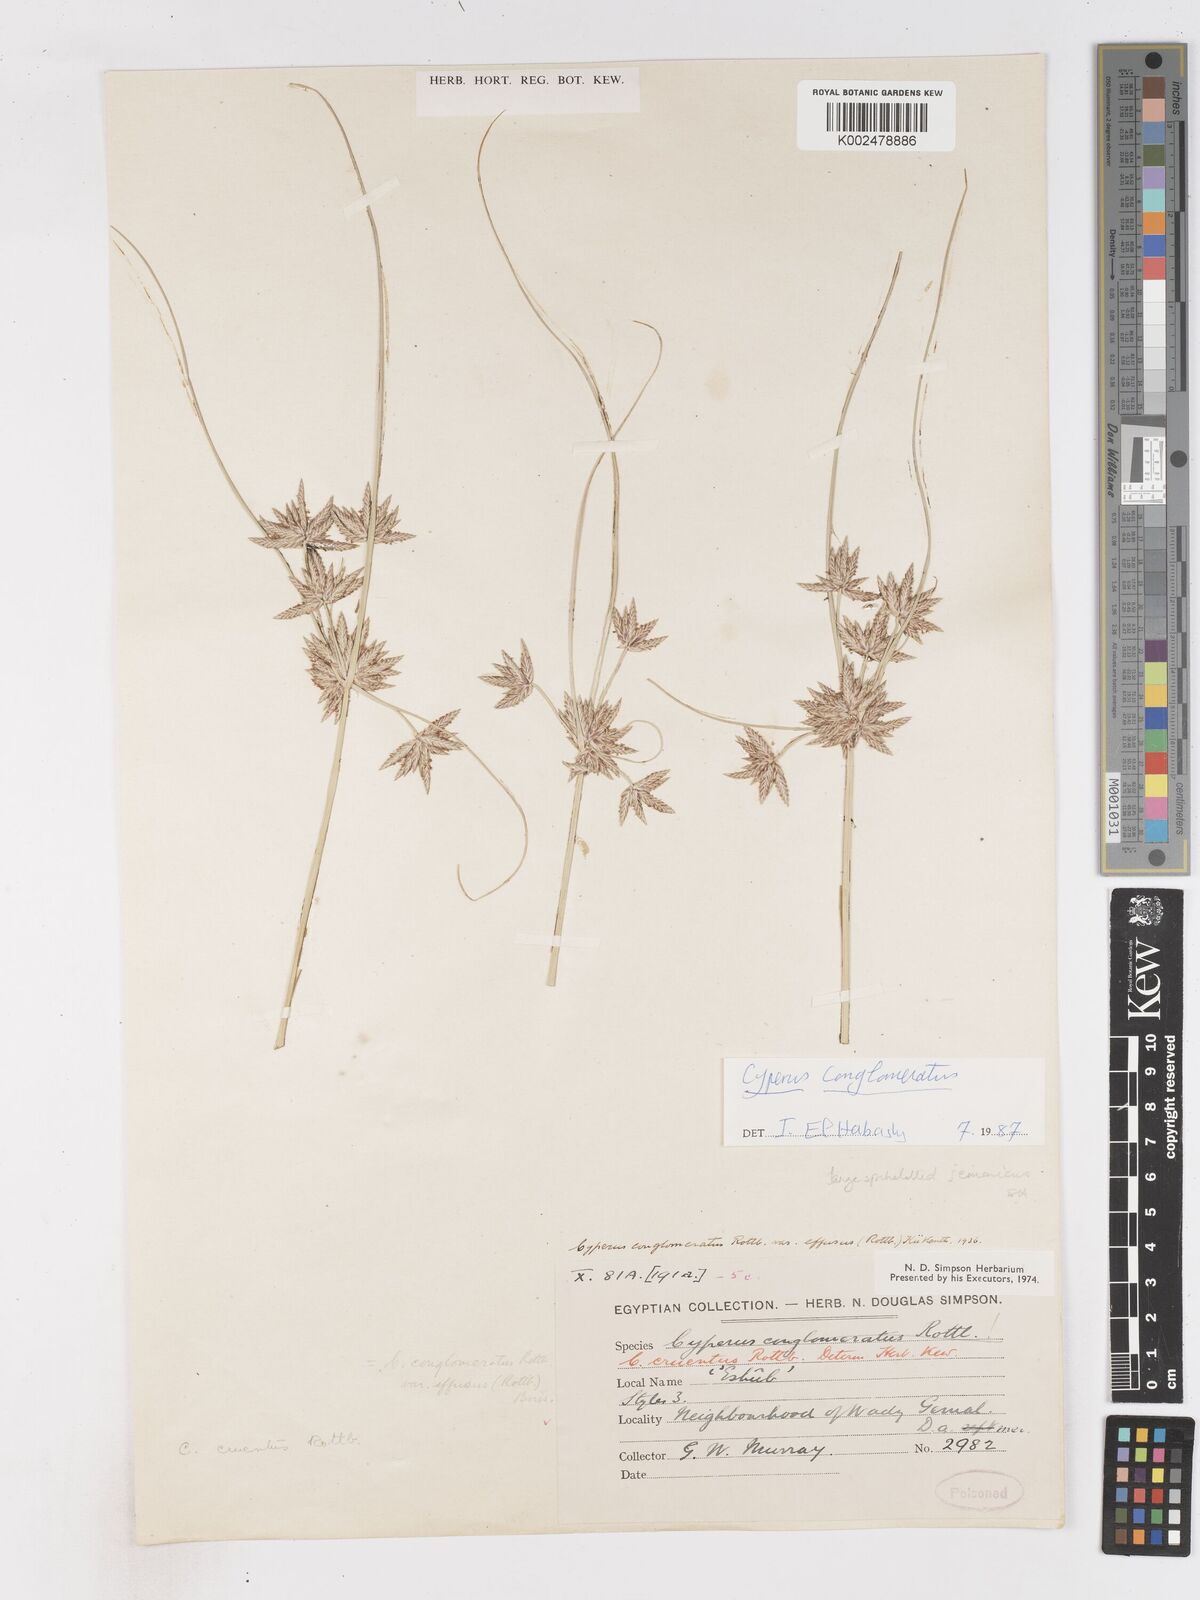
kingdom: Plantae
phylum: Tracheophyta
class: Liliopsida
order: Poales
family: Cyperaceae
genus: Cyperus
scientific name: Cyperus jeminicus
